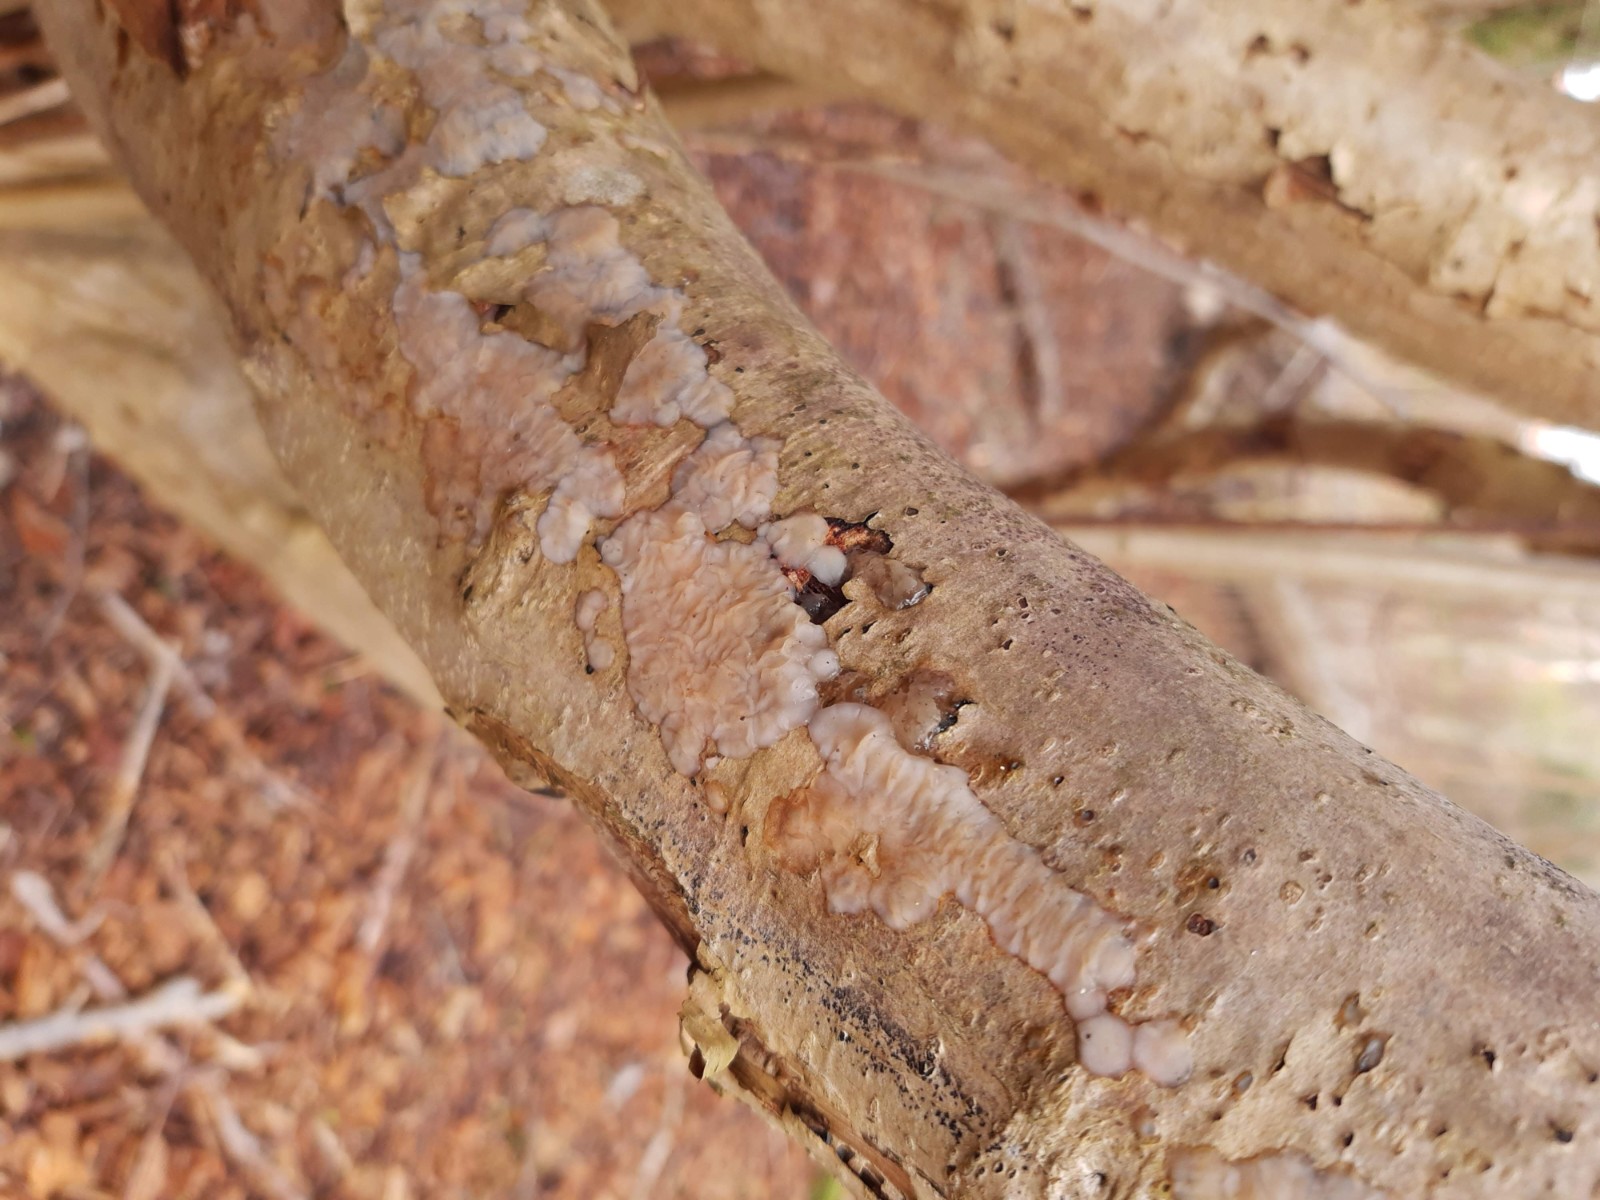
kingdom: Fungi
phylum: Basidiomycota
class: Agaricomycetes
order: Auriculariales
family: Auriculariaceae
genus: Exidia
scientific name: Exidia thuretiana
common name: hvidlig bævretop
